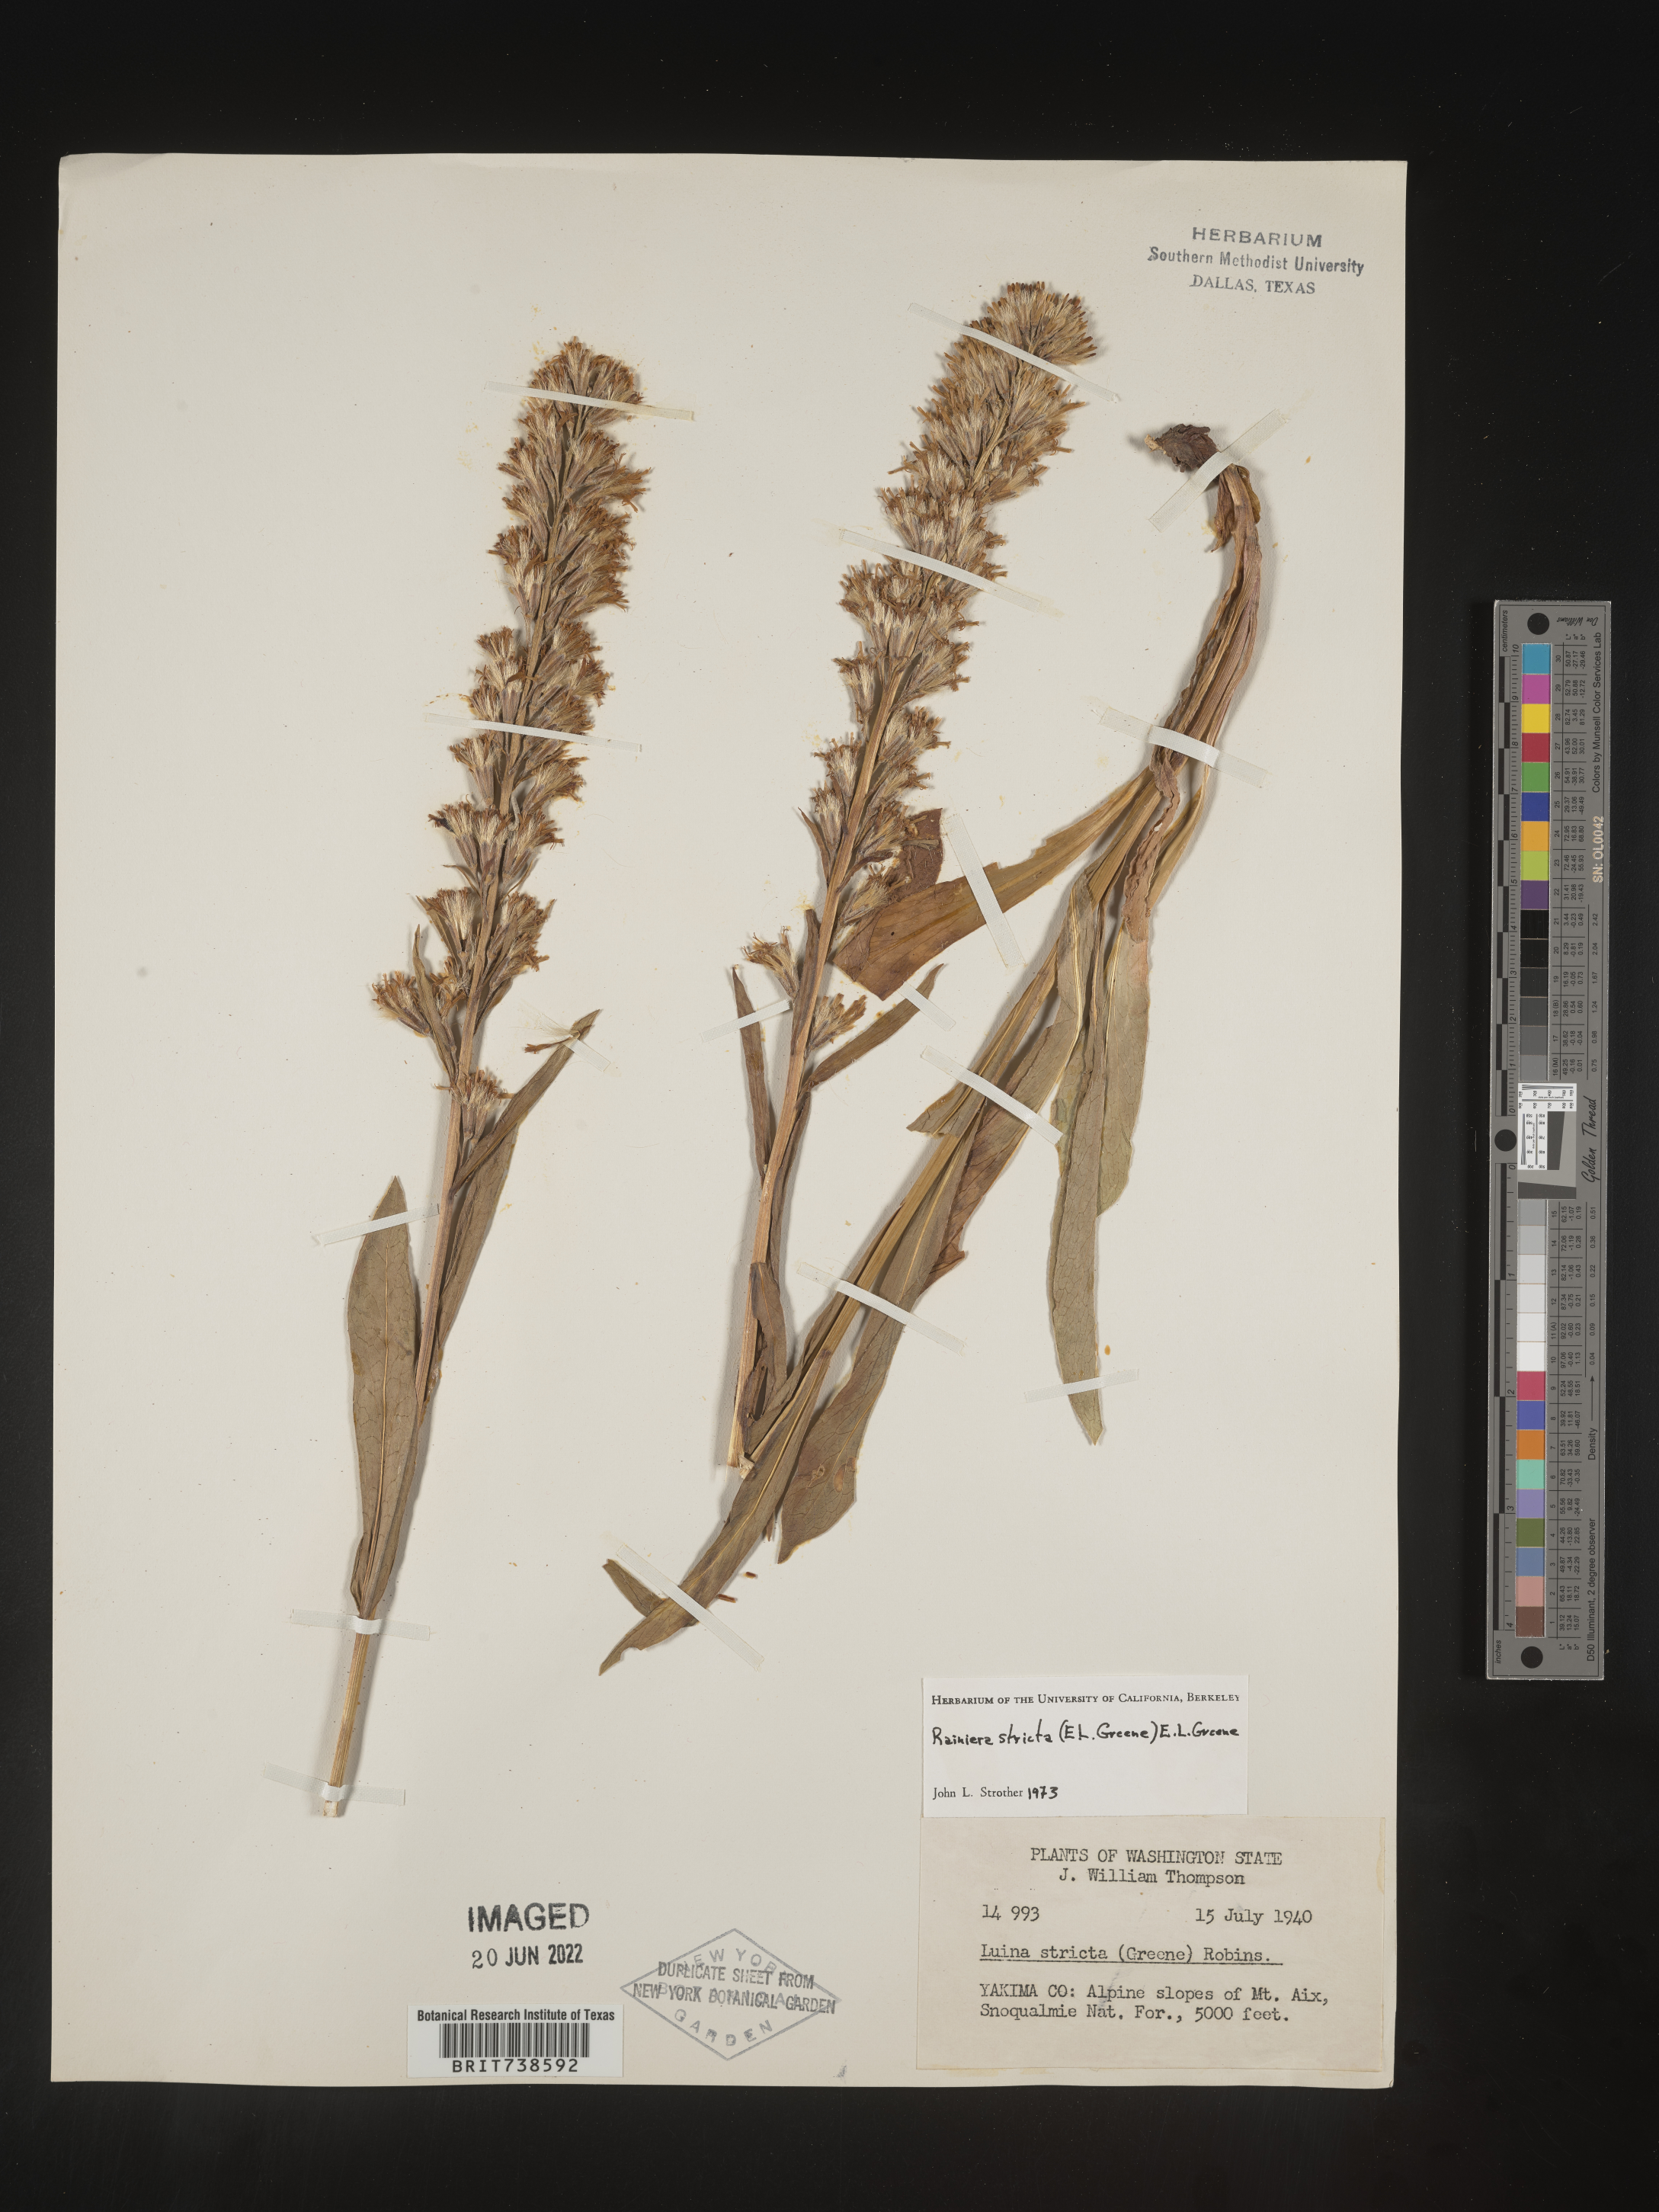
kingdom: Plantae
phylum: Tracheophyta
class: Magnoliopsida
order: Asterales
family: Asteraceae
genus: Rainiera
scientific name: Rainiera
